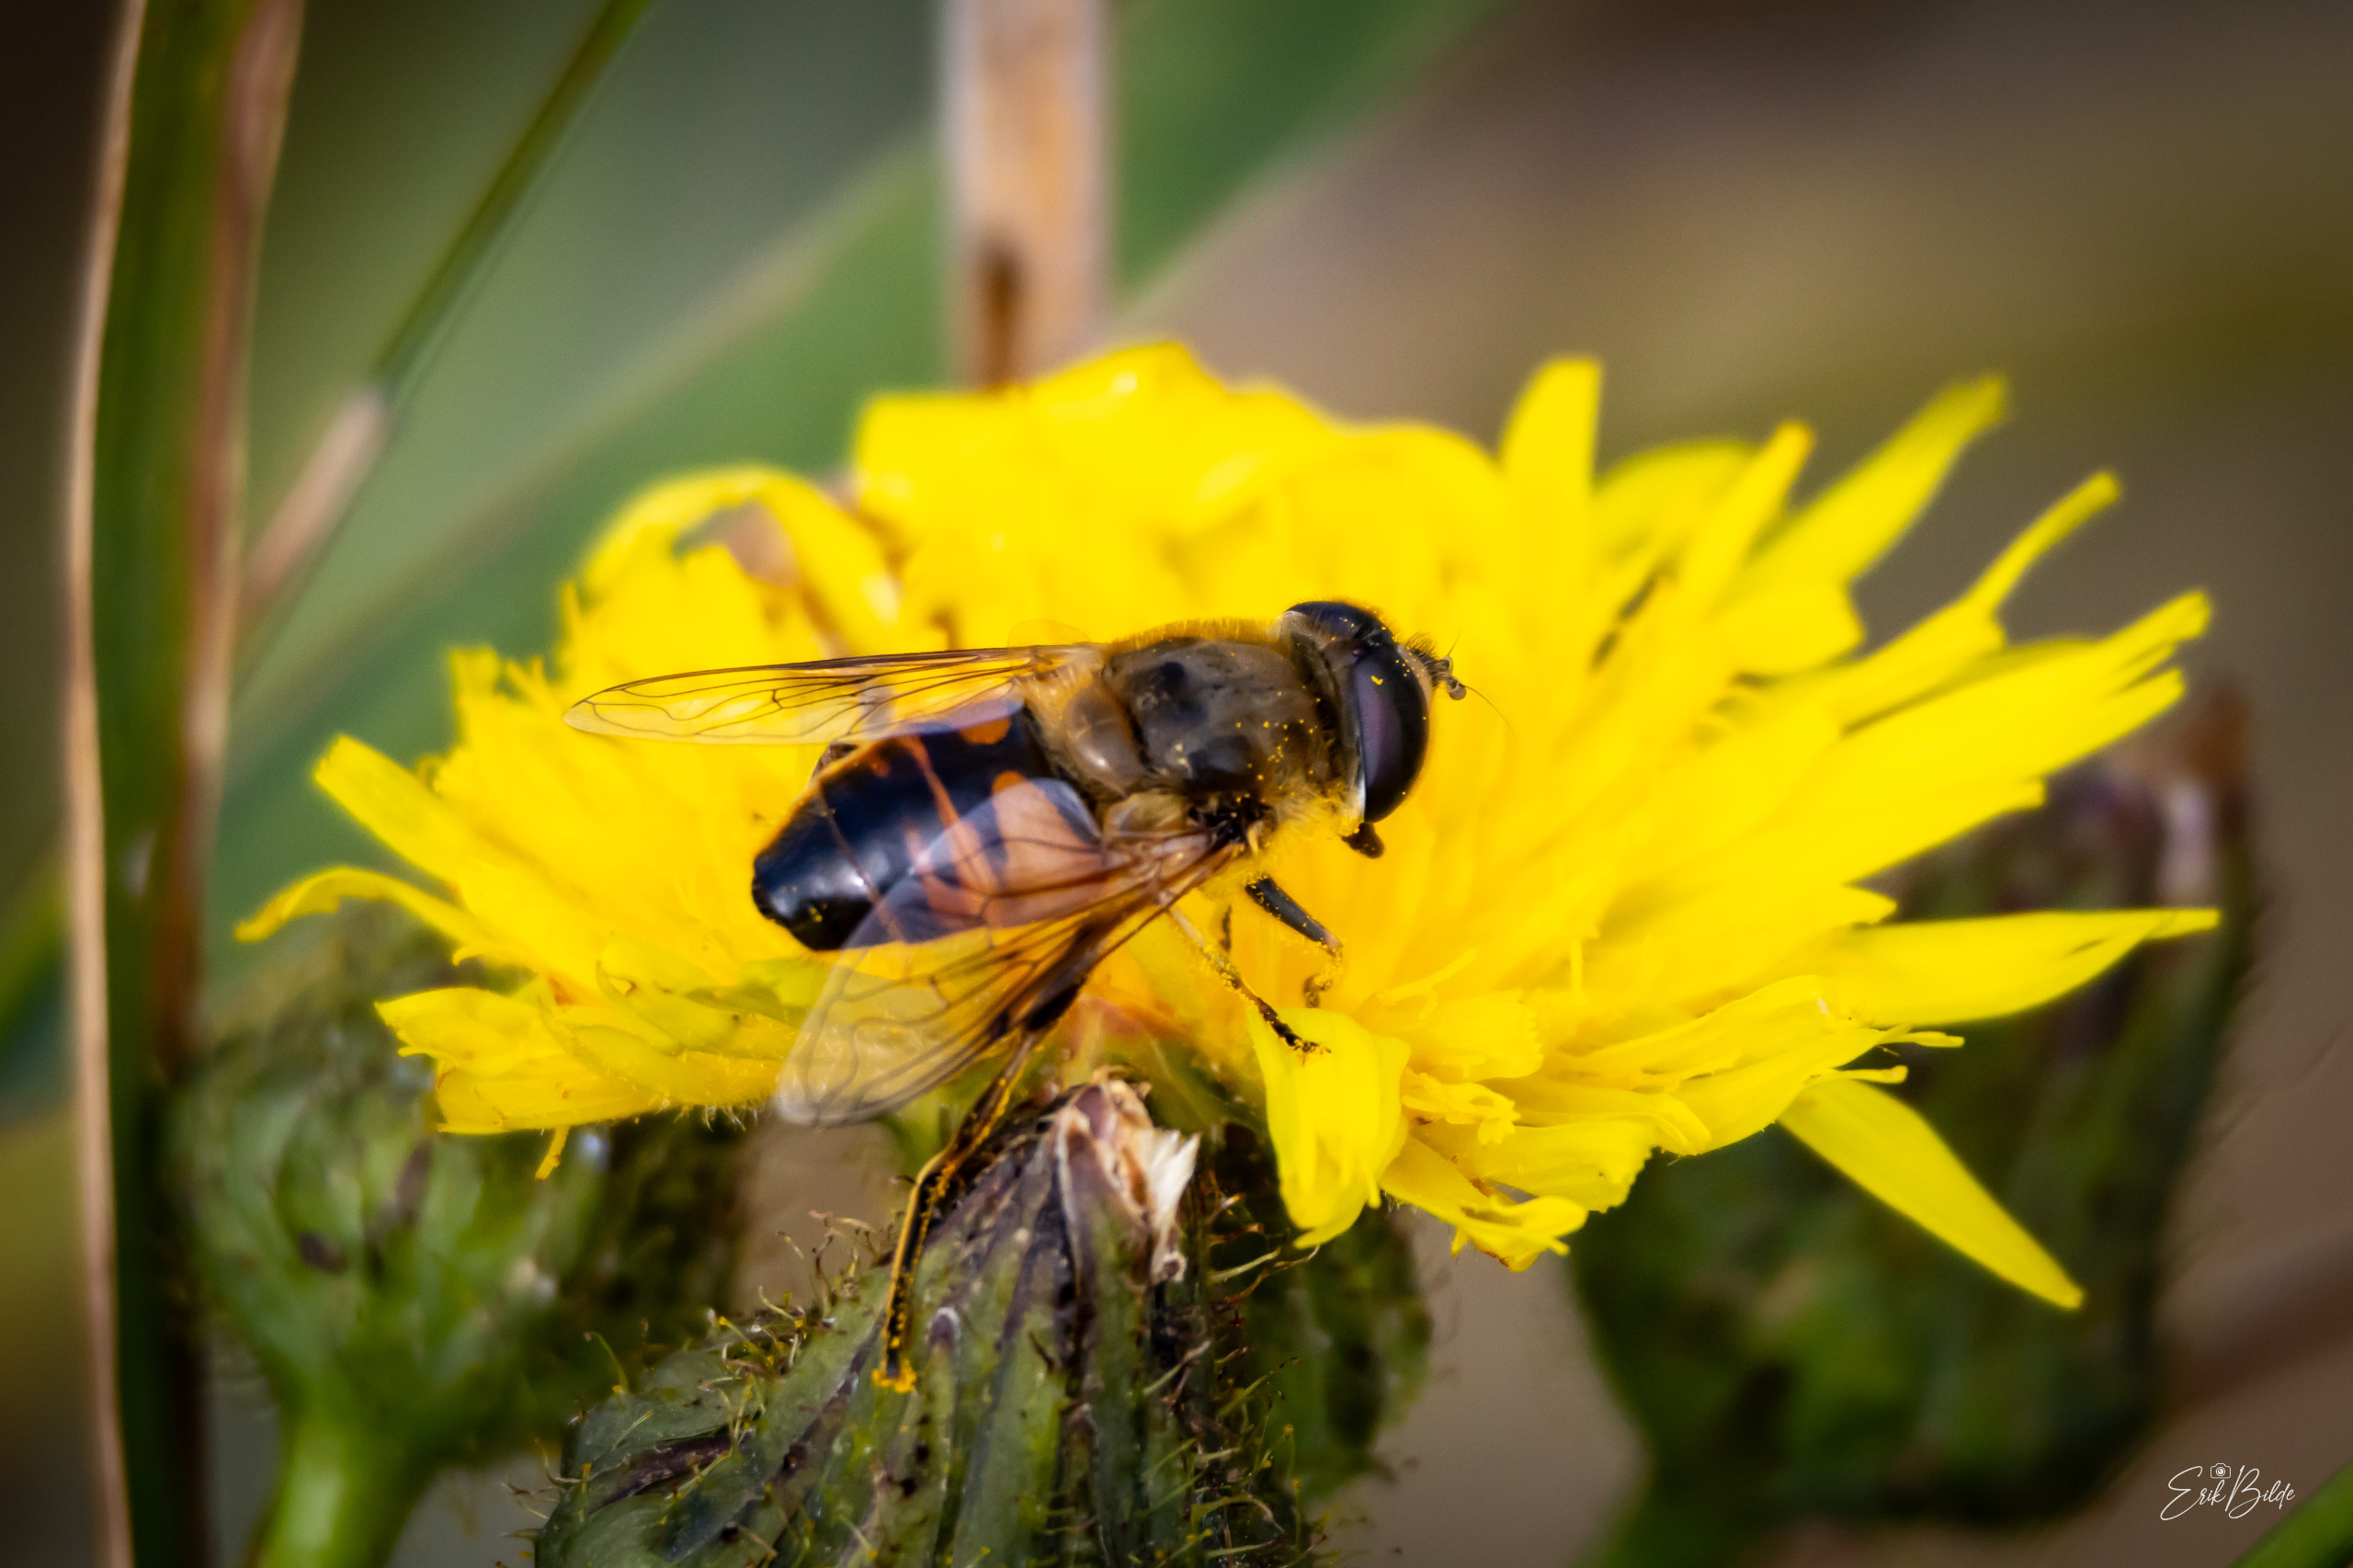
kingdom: Animalia
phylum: Arthropoda
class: Insecta
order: Diptera
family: Syrphidae
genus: Eristalis
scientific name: Eristalis tenax
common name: Droneflue
